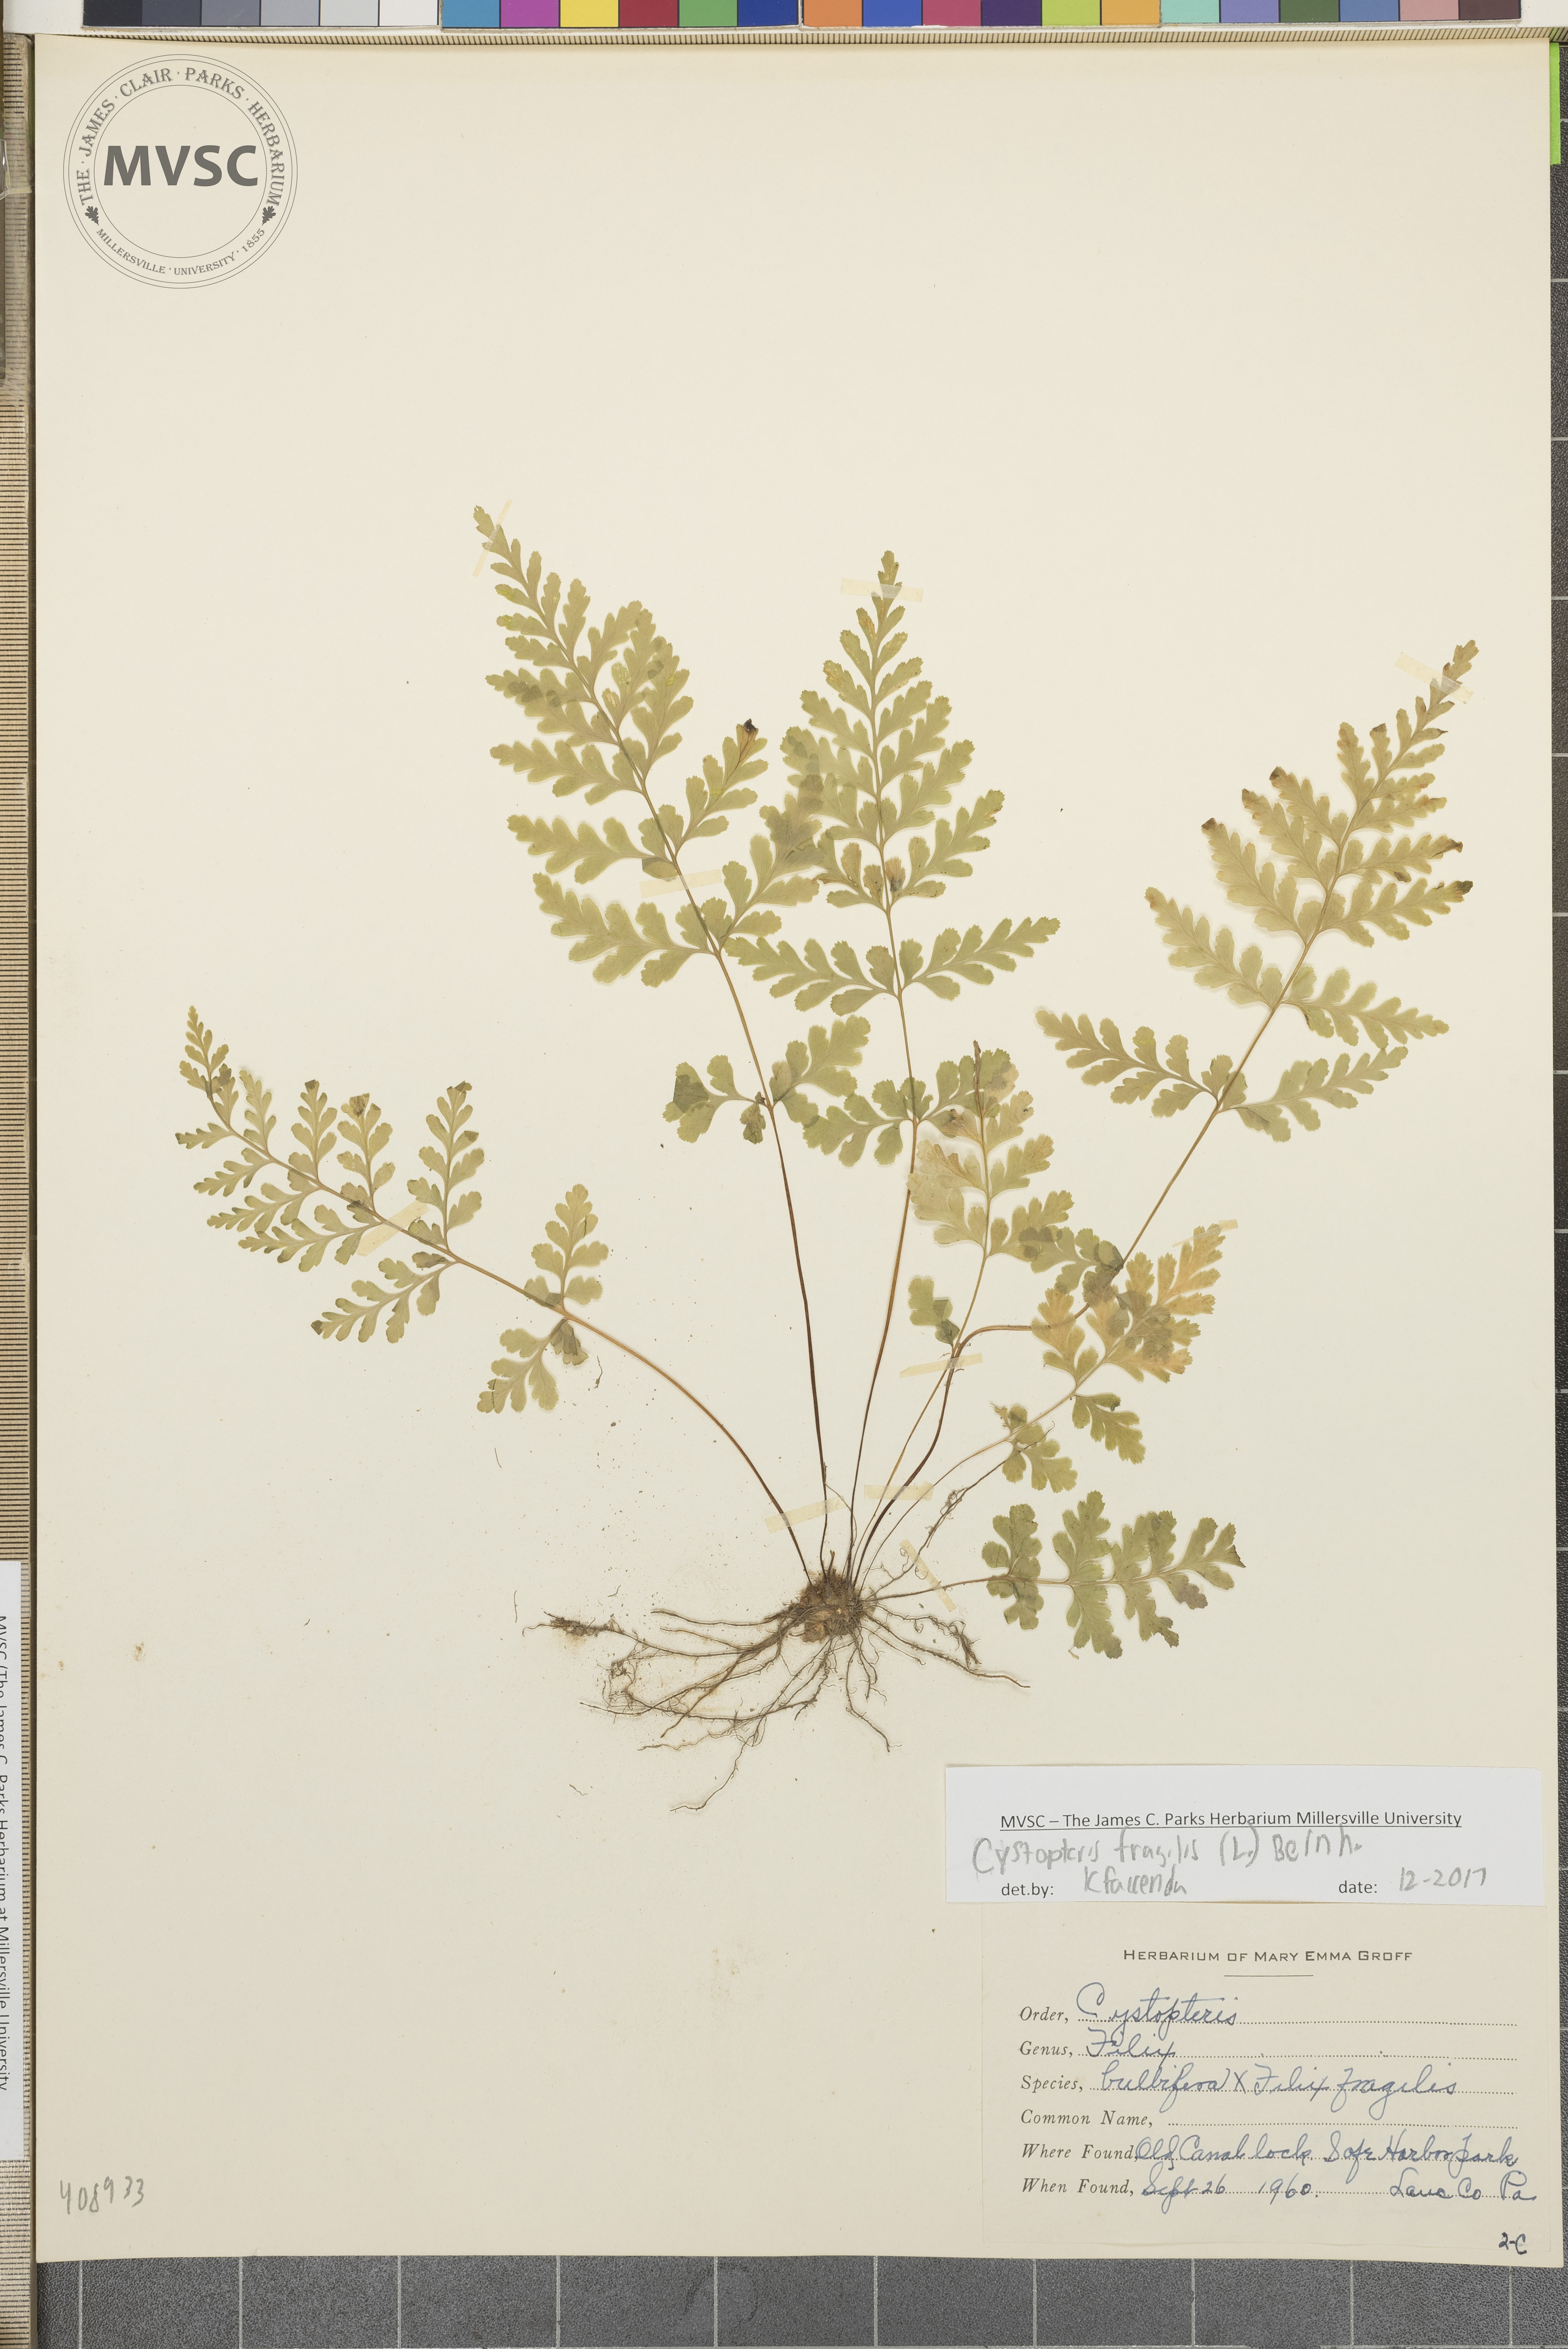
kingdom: Plantae
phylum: Tracheophyta
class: Polypodiopsida
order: Polypodiales
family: Cystopteridaceae
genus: Cystopteris
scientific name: Cystopteris fragilis
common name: Brittle bladder fern
